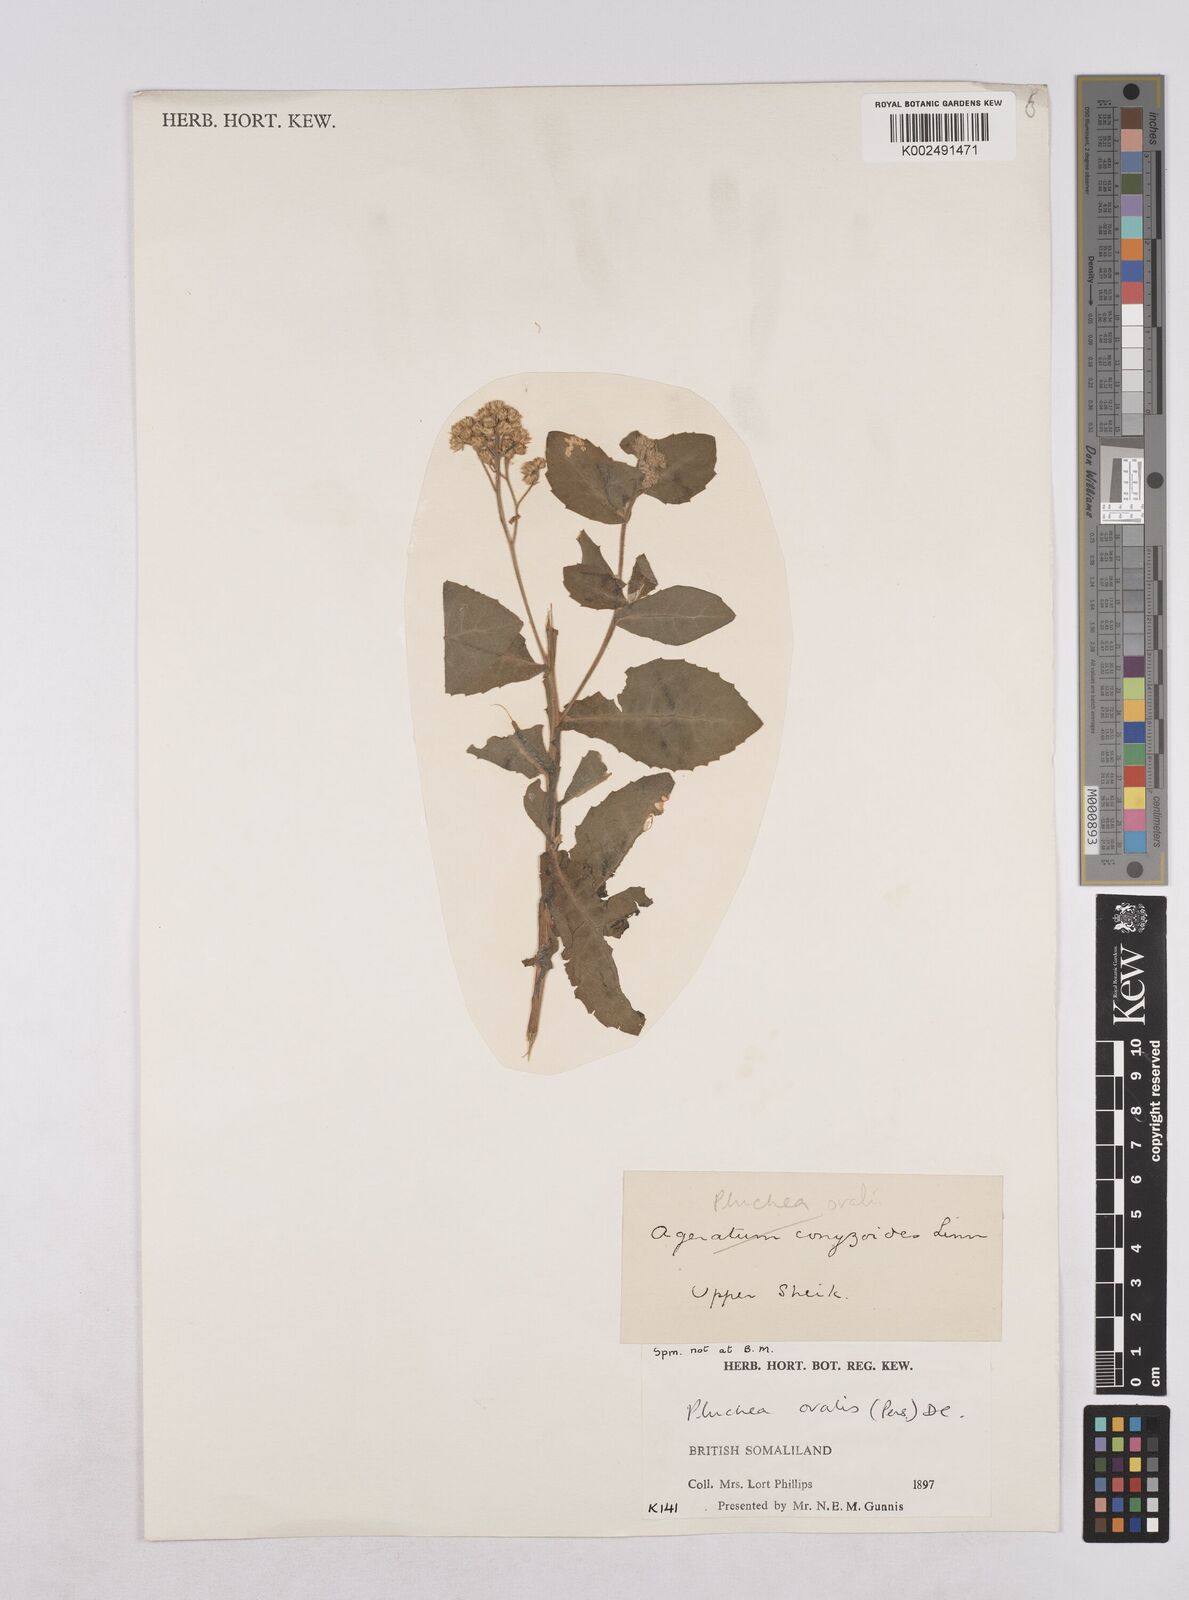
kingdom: Plantae
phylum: Tracheophyta
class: Magnoliopsida
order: Asterales
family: Asteraceae
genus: Pluchea
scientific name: Pluchea ovalis
